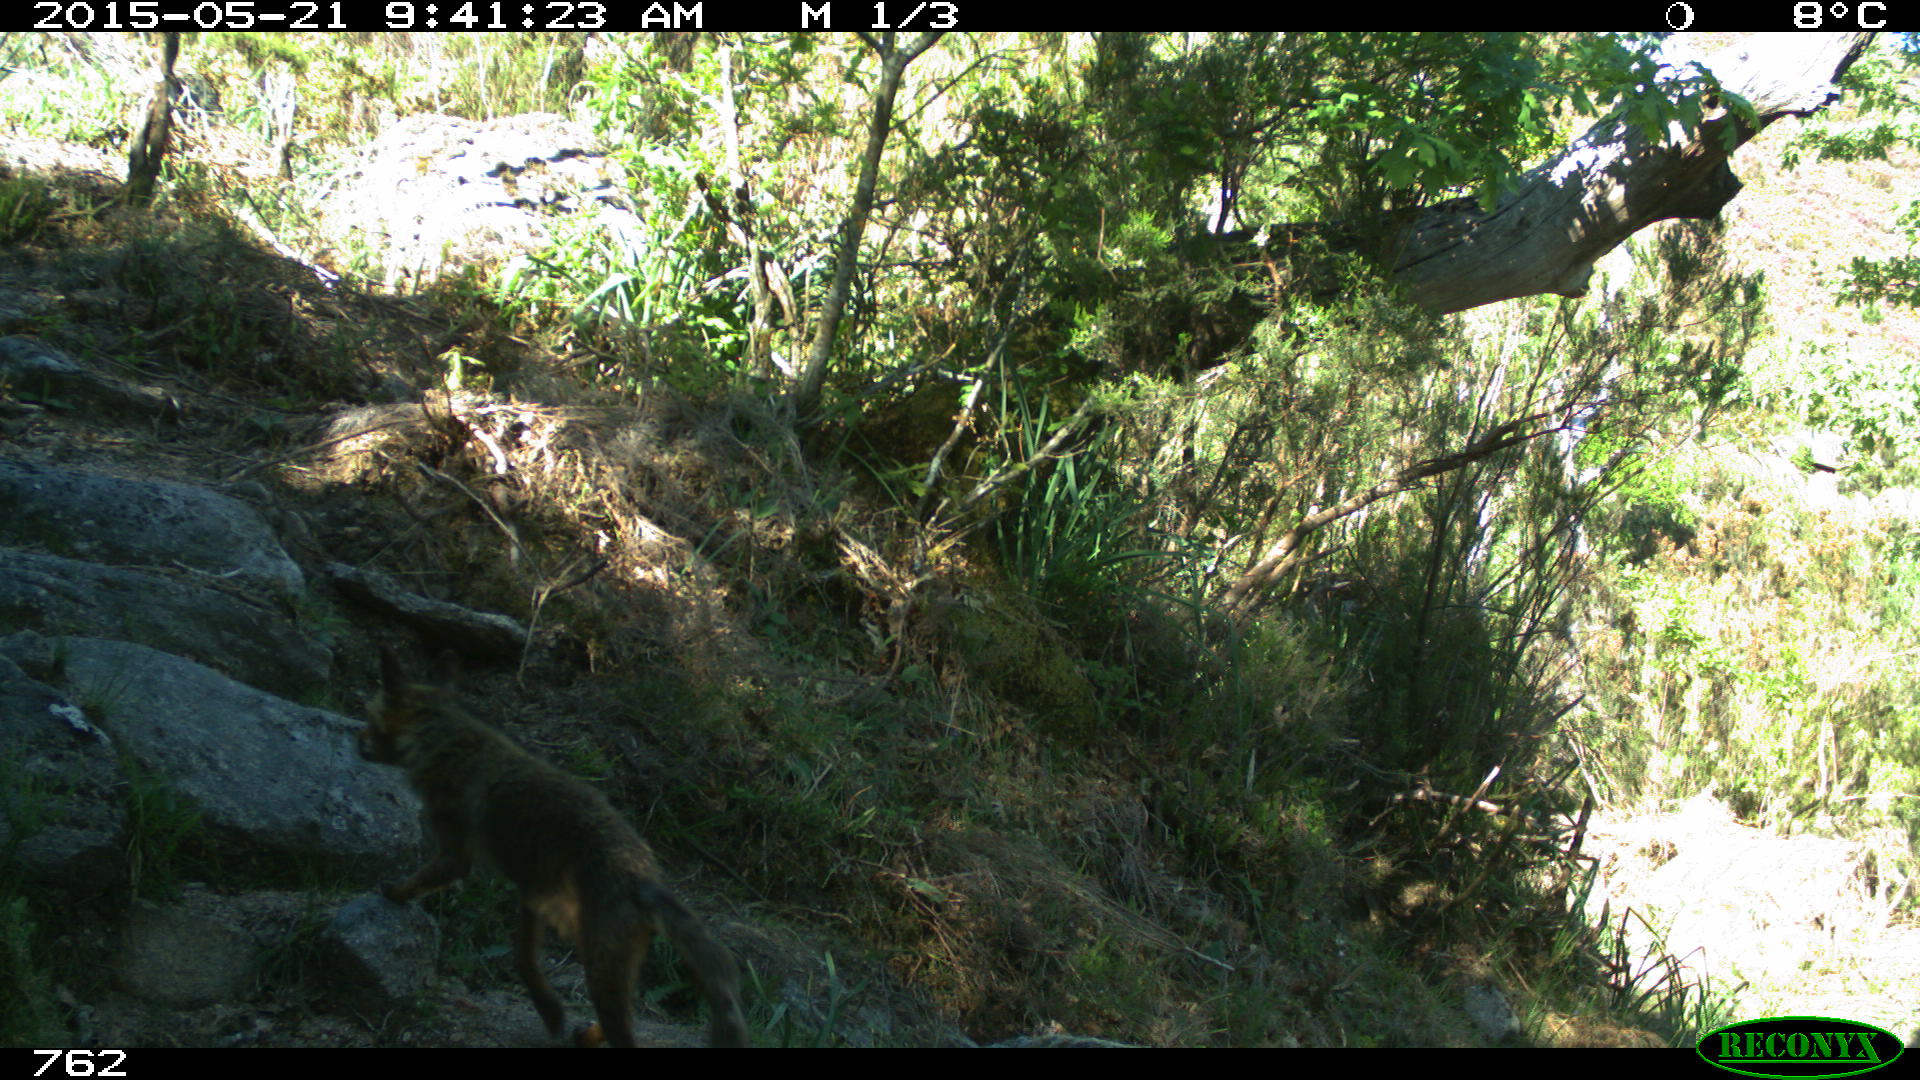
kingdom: Animalia
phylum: Chordata
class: Mammalia
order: Carnivora
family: Canidae
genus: Vulpes
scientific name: Vulpes vulpes
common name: Red fox
